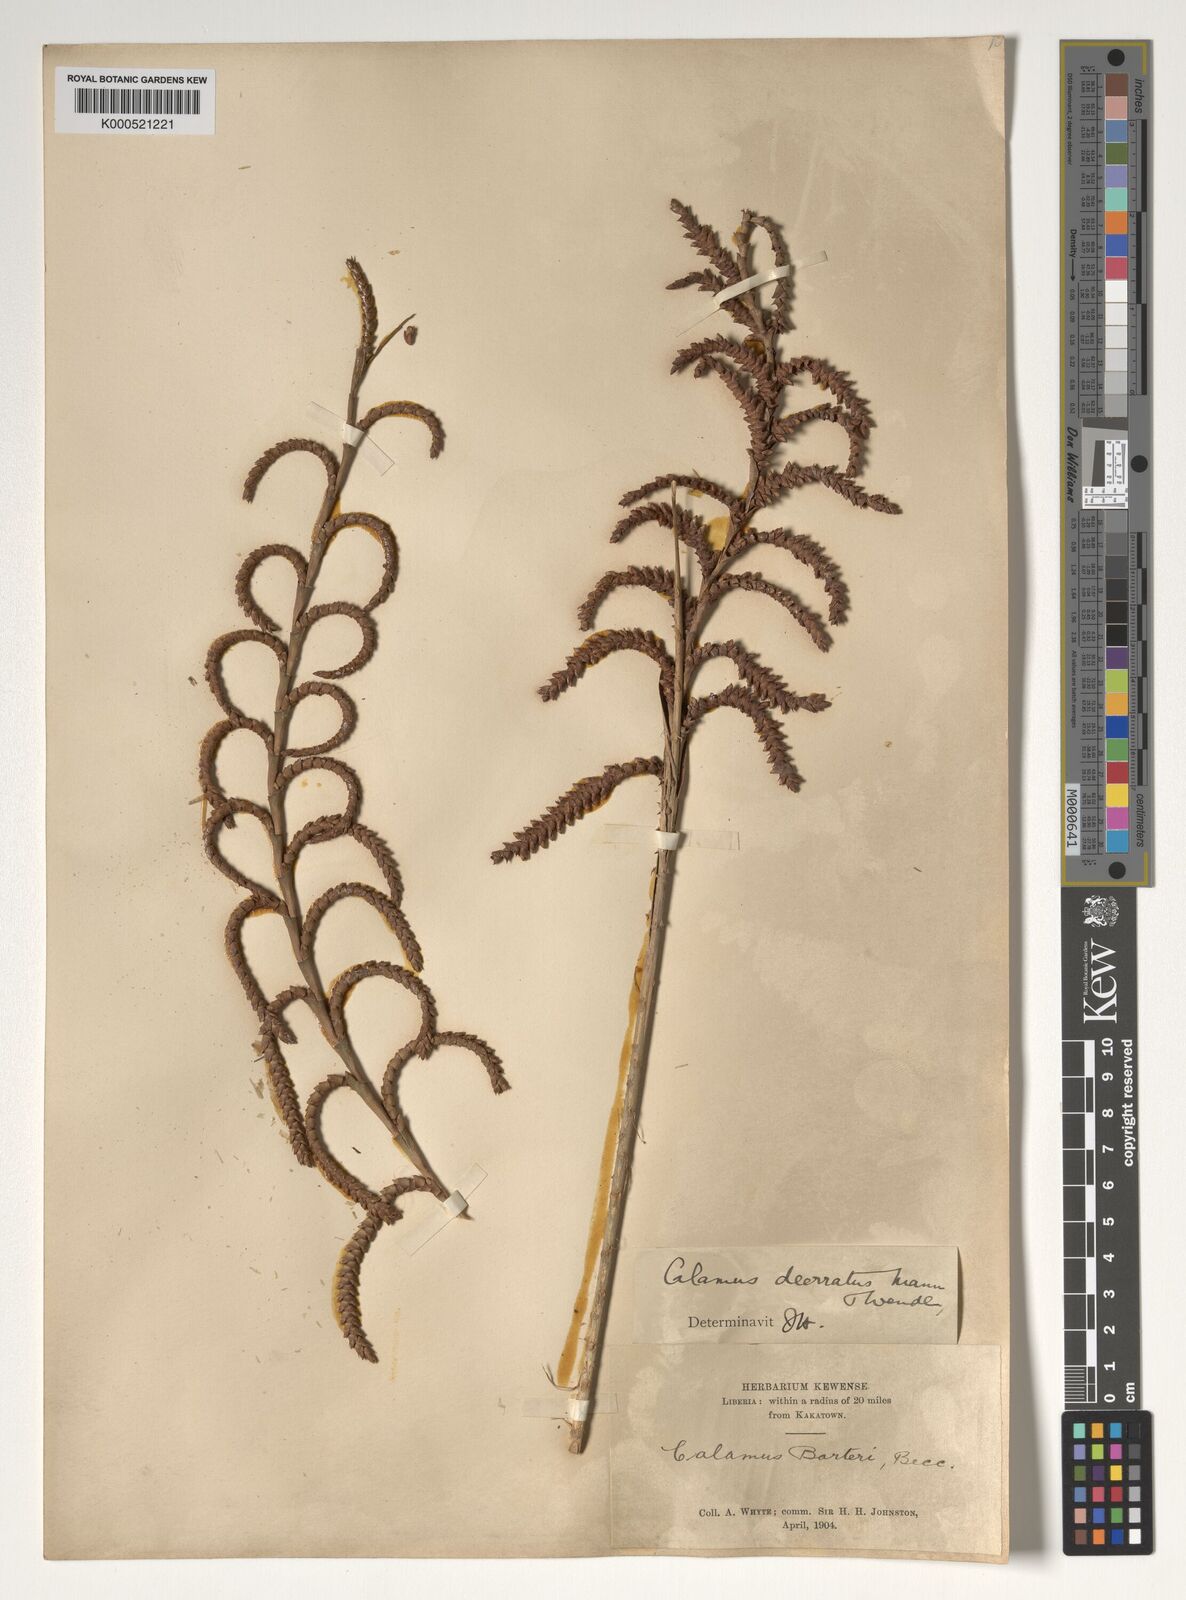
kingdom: Plantae
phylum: Tracheophyta
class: Liliopsida
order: Arecales
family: Arecaceae
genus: Calamus
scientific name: Calamus deerratus
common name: Rattan
